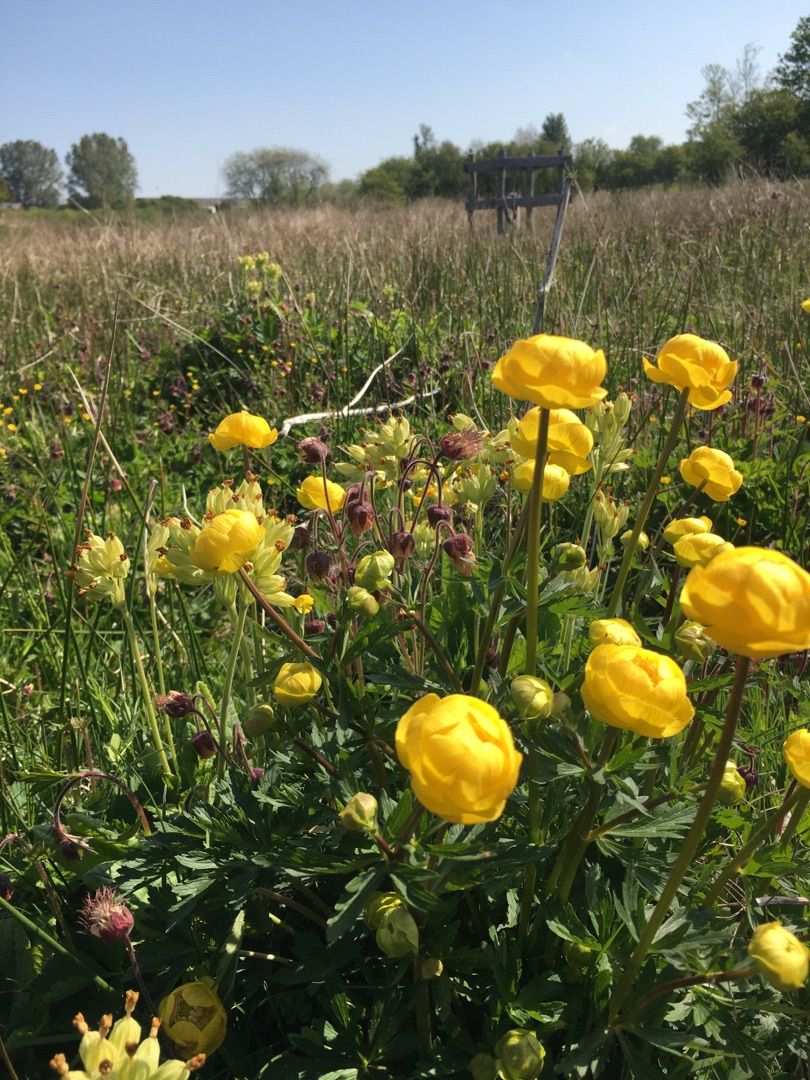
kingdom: Plantae
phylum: Tracheophyta
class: Magnoliopsida
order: Ranunculales
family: Ranunculaceae
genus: Trollius
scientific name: Trollius europaeus
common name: Engblomme
